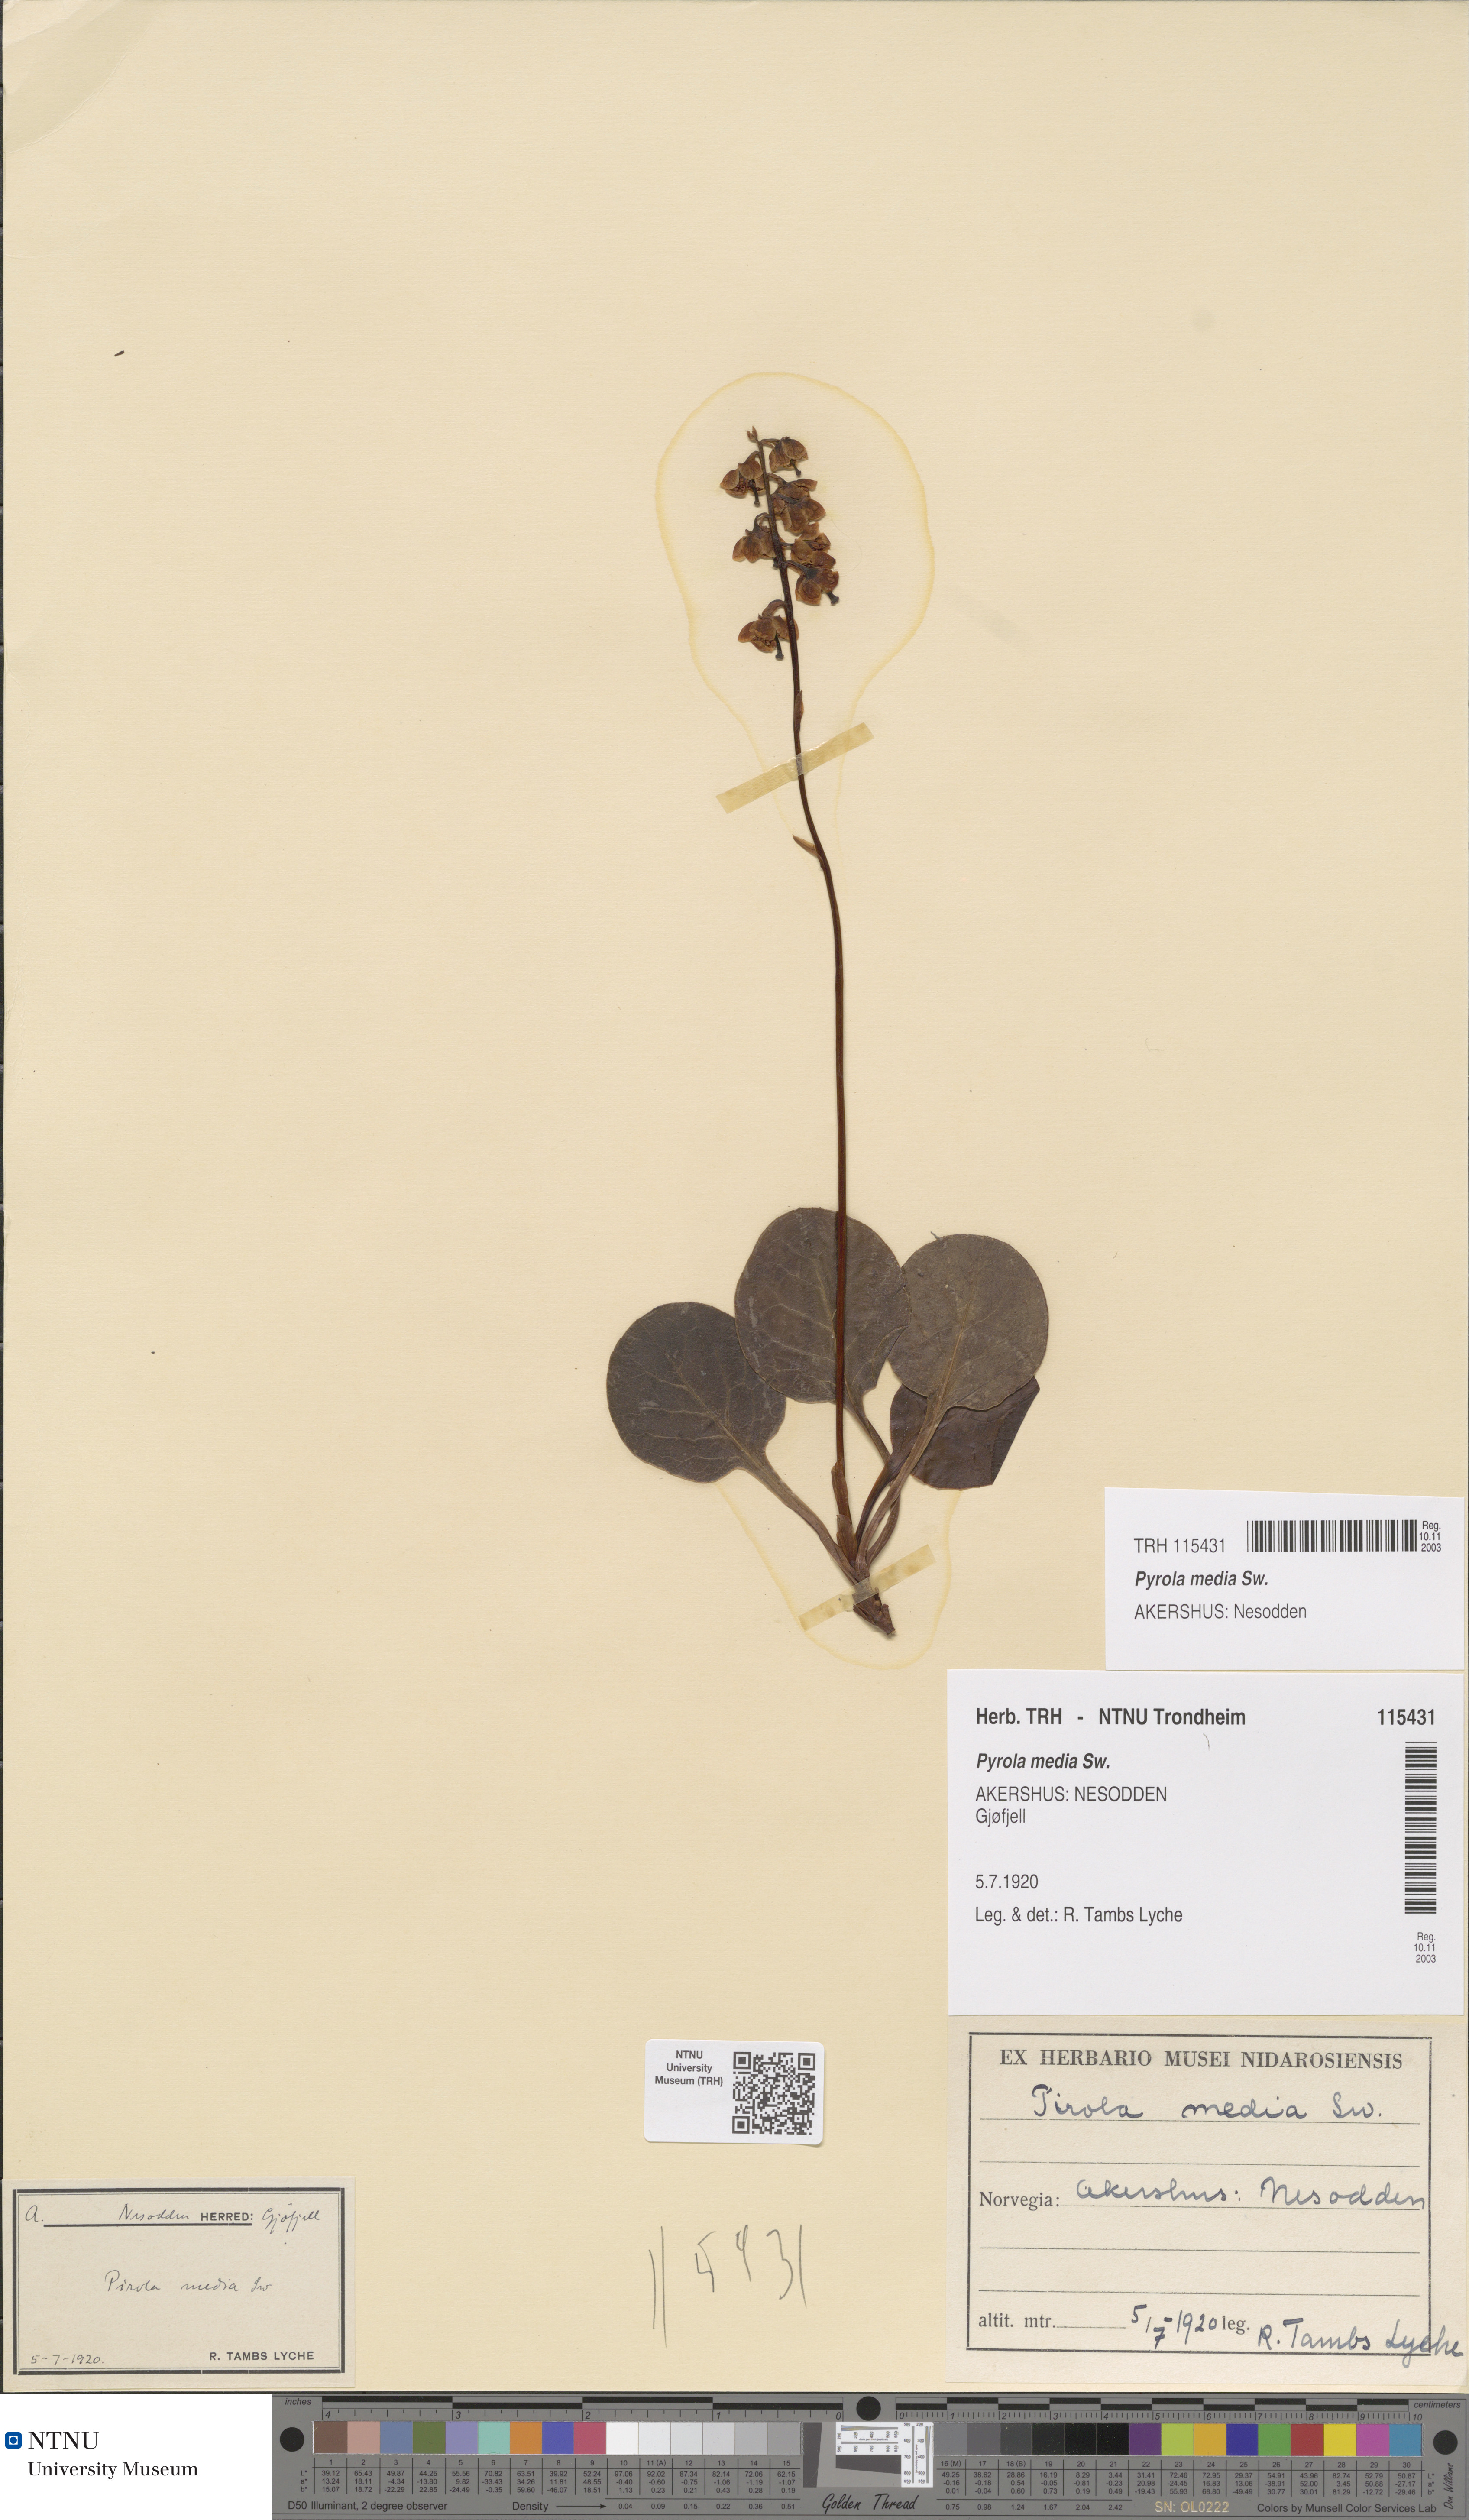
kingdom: Plantae
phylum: Tracheophyta
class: Magnoliopsida
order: Ericales
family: Ericaceae
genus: Pyrola
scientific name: Pyrola media
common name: Intermediate wintergreen
